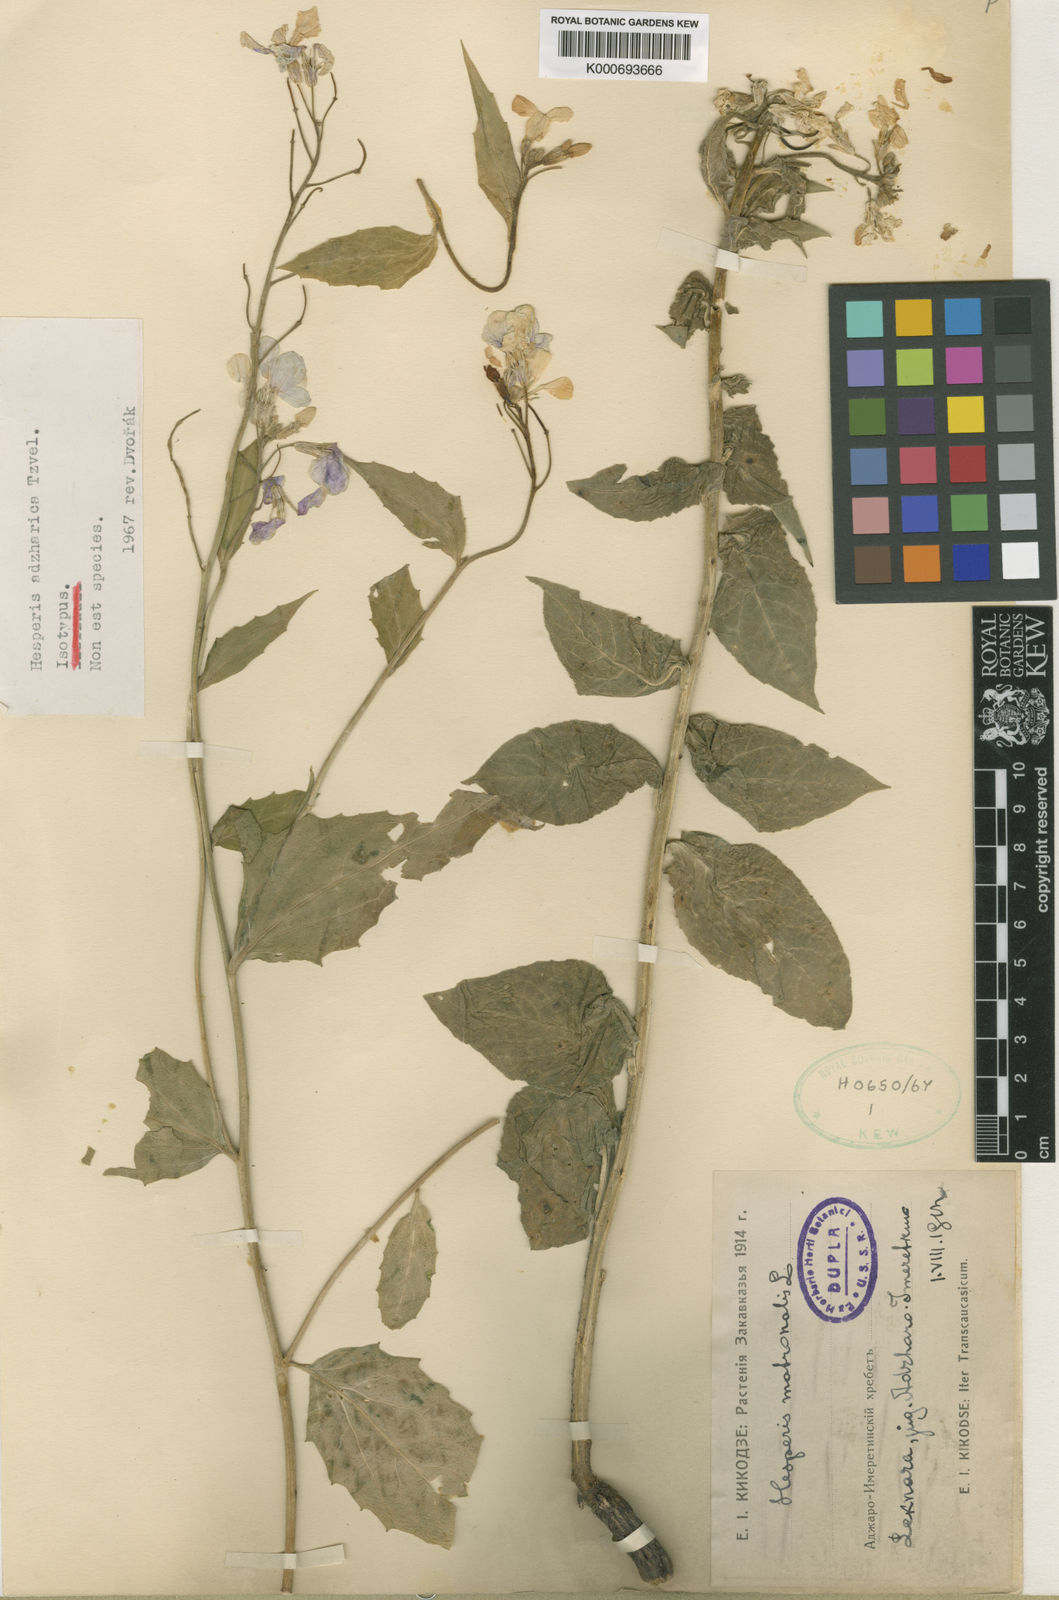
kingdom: Plantae
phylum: Tracheophyta
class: Magnoliopsida
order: Brassicales
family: Brassicaceae
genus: Hesperis
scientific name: Hesperis matronalis
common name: Dame's-violet
